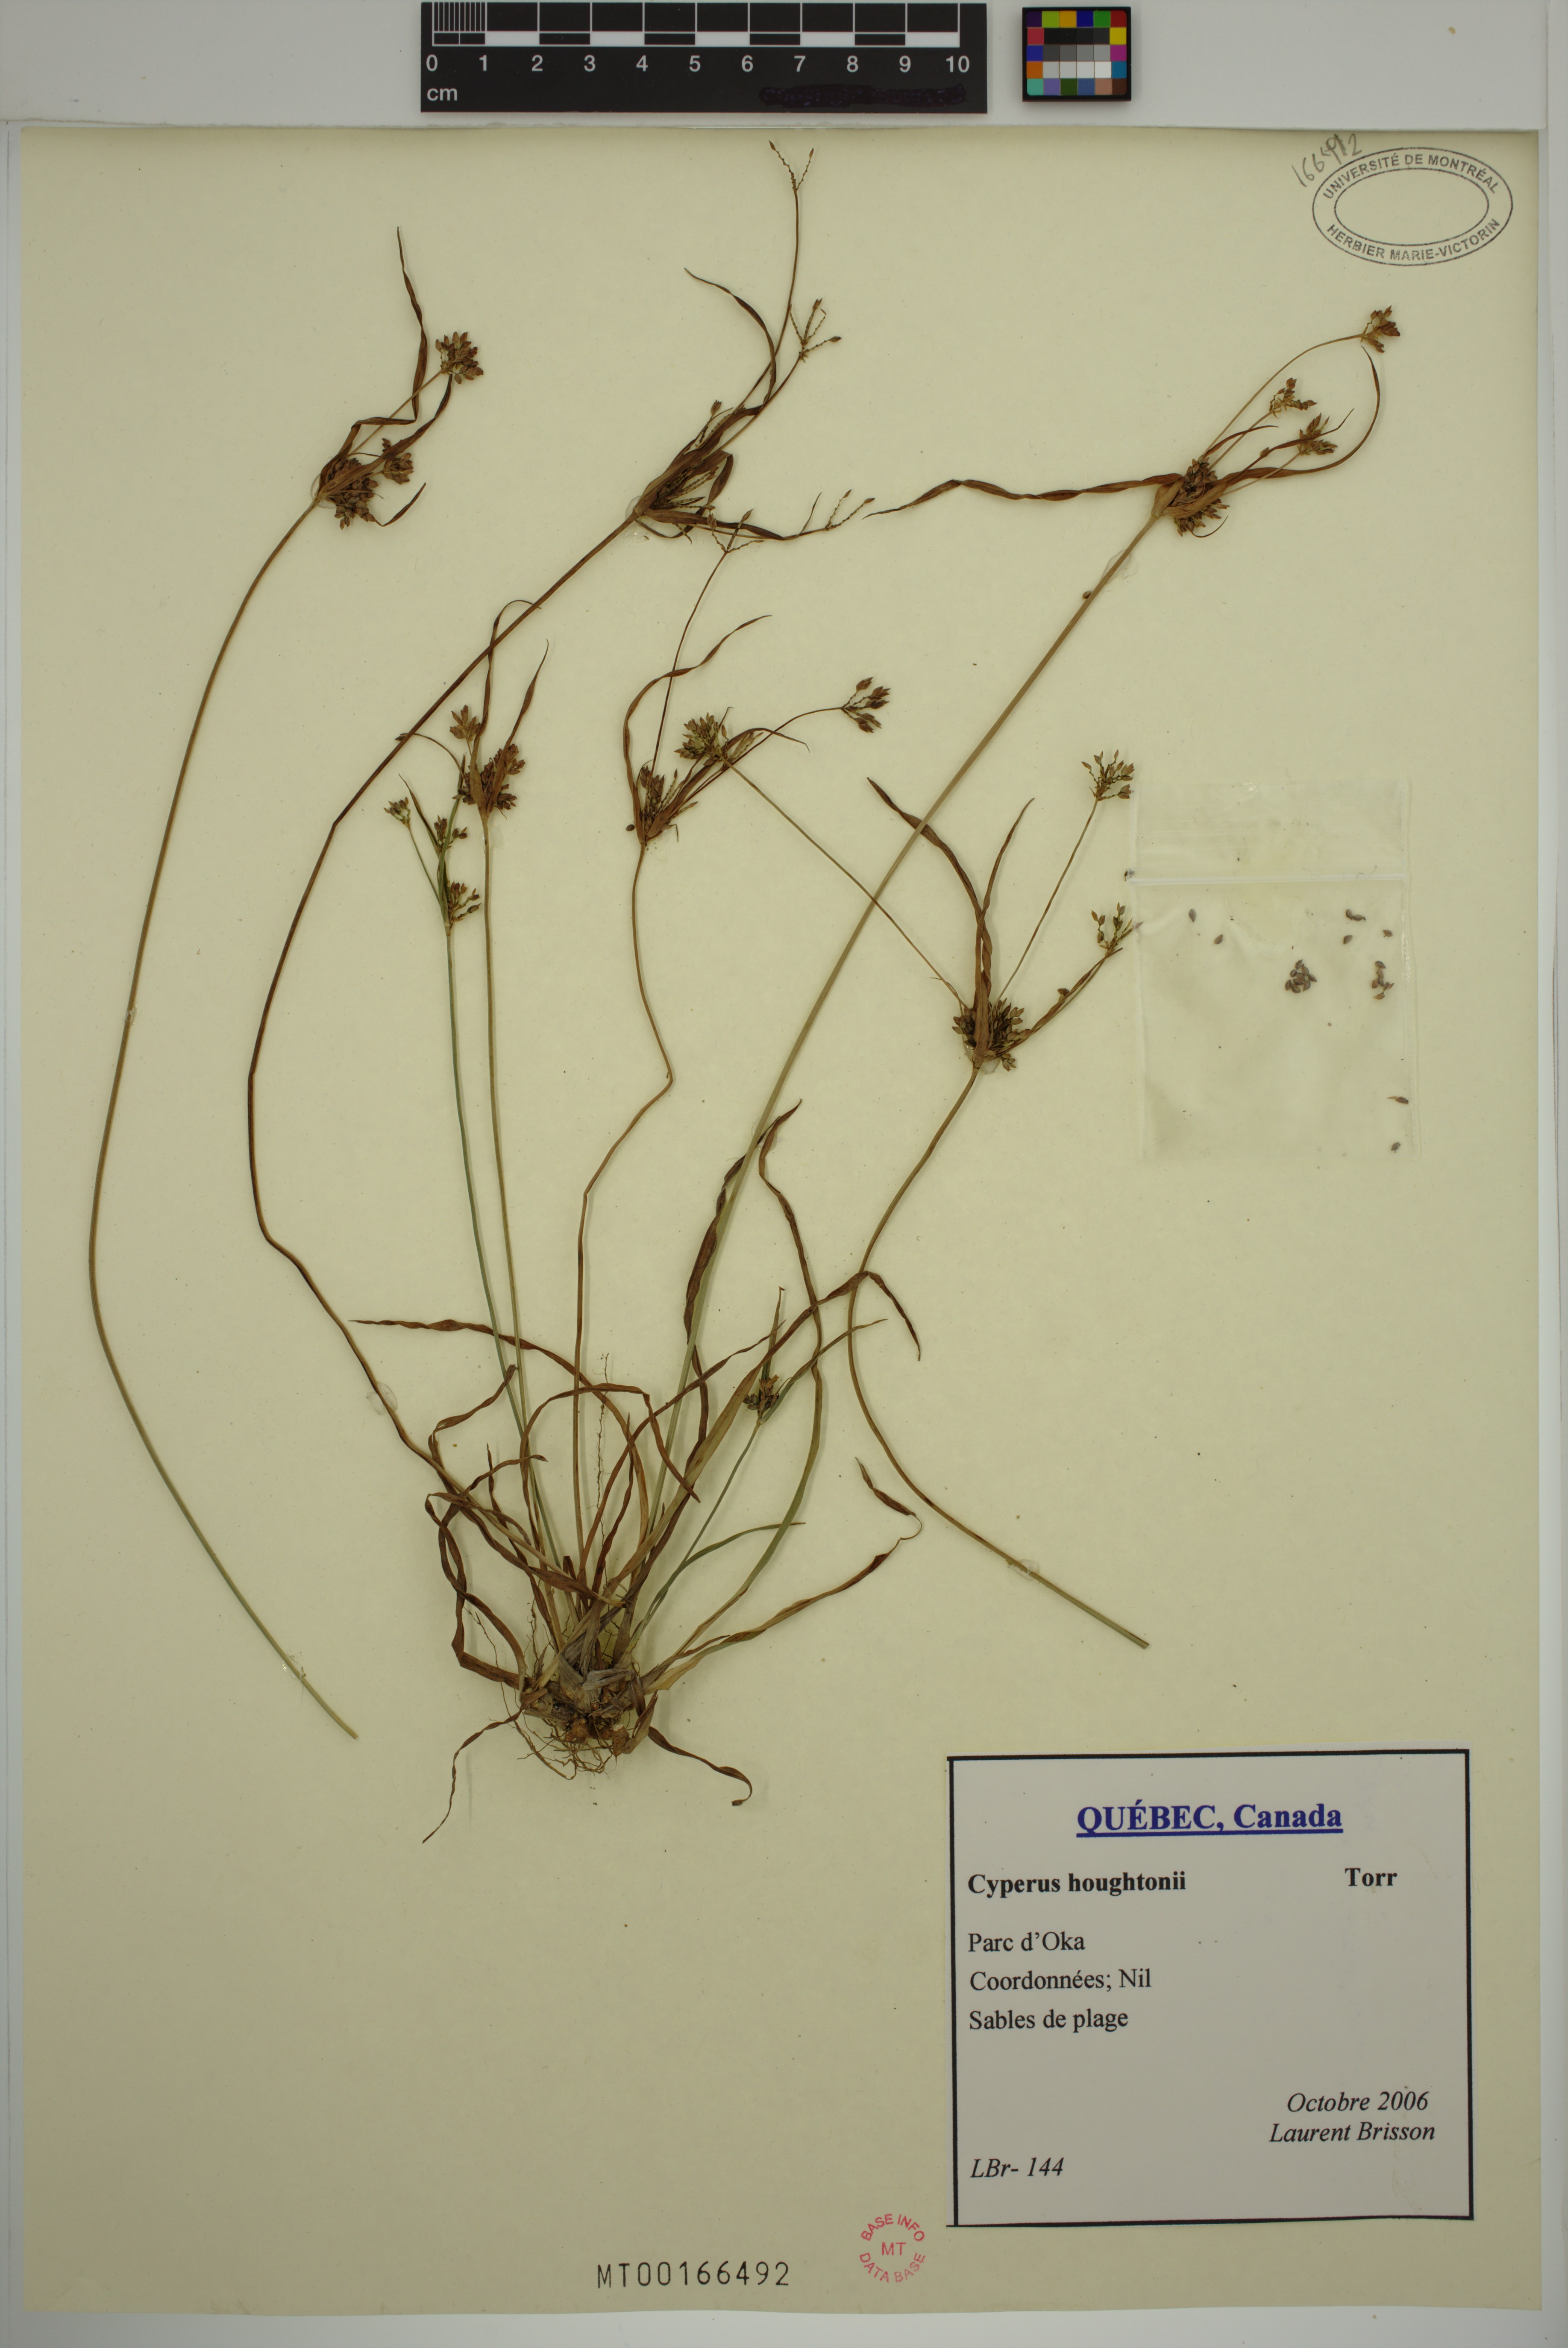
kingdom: Plantae
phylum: Tracheophyta
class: Liliopsida
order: Poales
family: Cyperaceae
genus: Cyperus
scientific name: Cyperus houghtonii
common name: Houghton's cyperus
